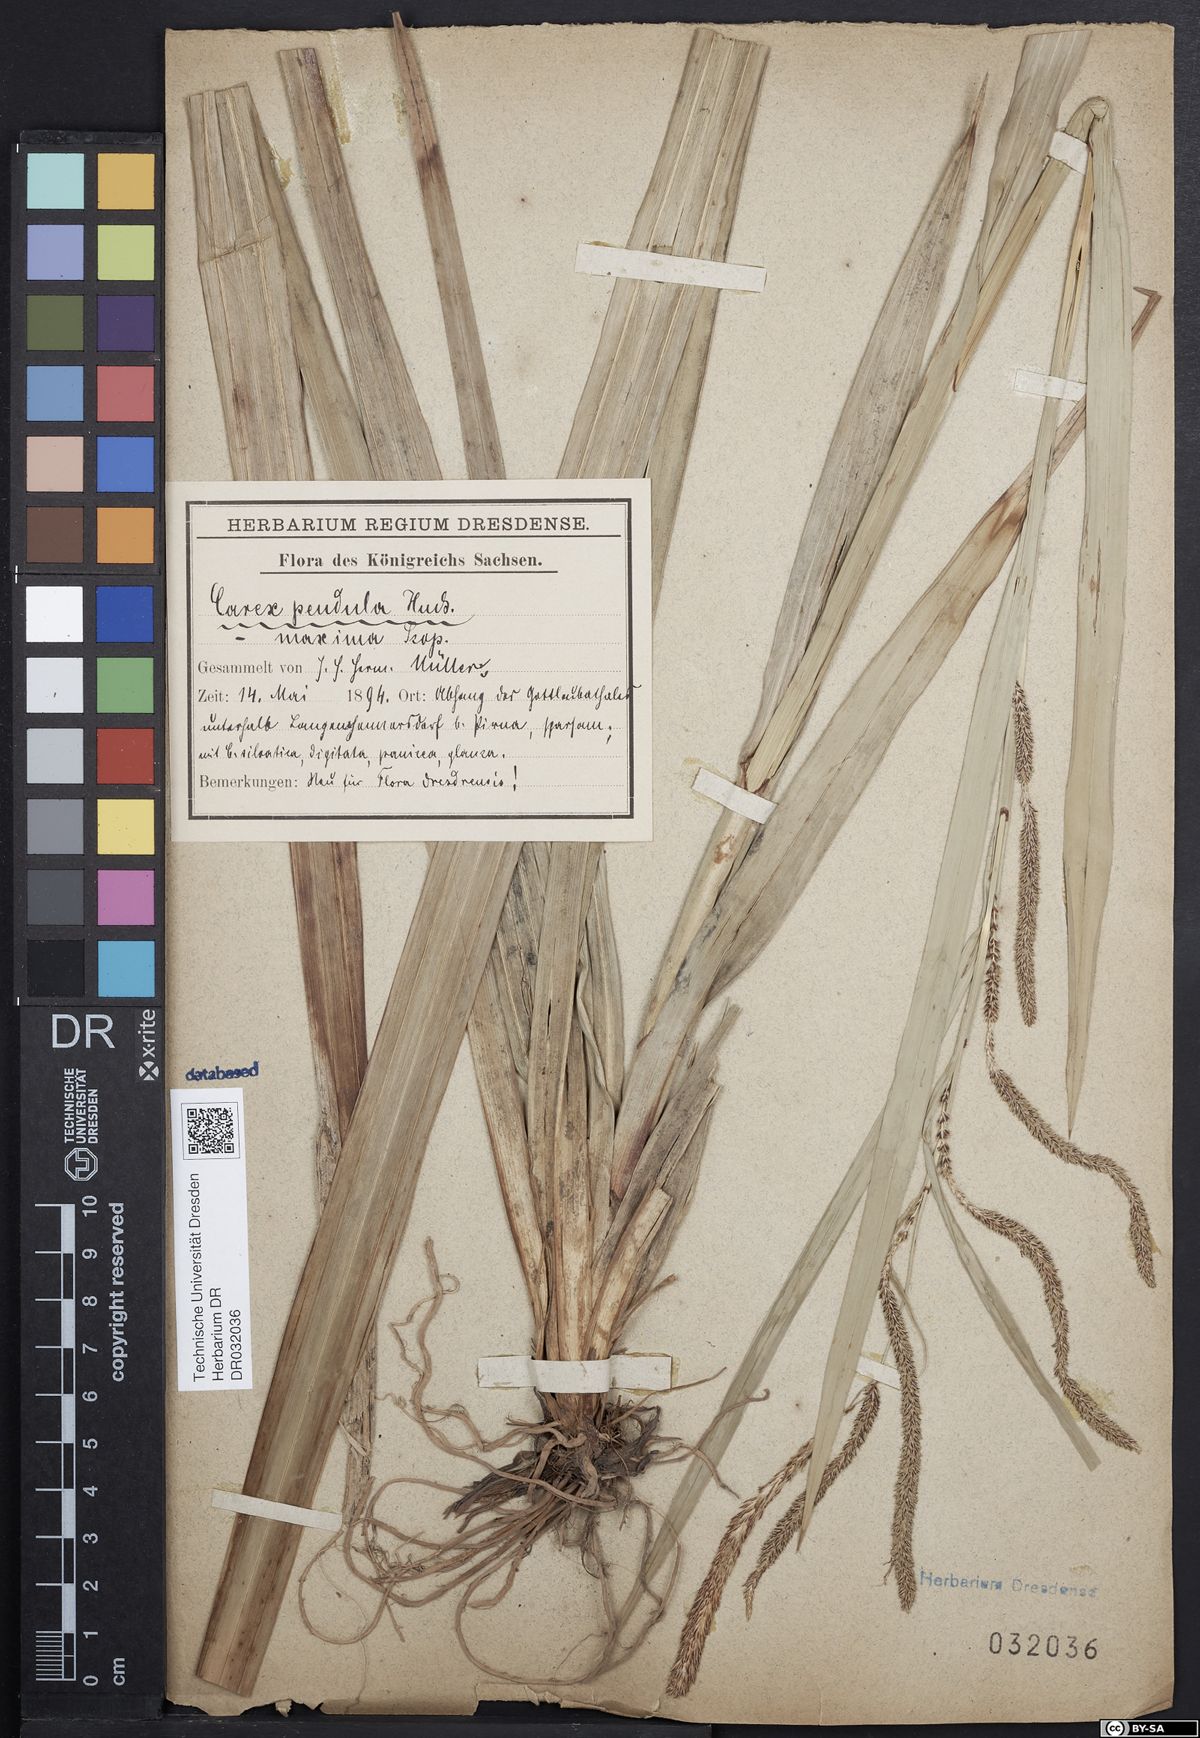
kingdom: Plantae
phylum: Tracheophyta
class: Liliopsida
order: Poales
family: Cyperaceae
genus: Carex
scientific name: Carex pendula
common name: Pendulous sedge
